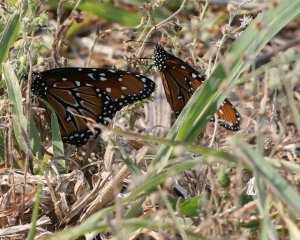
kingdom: Animalia
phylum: Arthropoda
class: Insecta
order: Lepidoptera
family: Nymphalidae
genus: Danaus
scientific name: Danaus gilippus
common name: Queen
